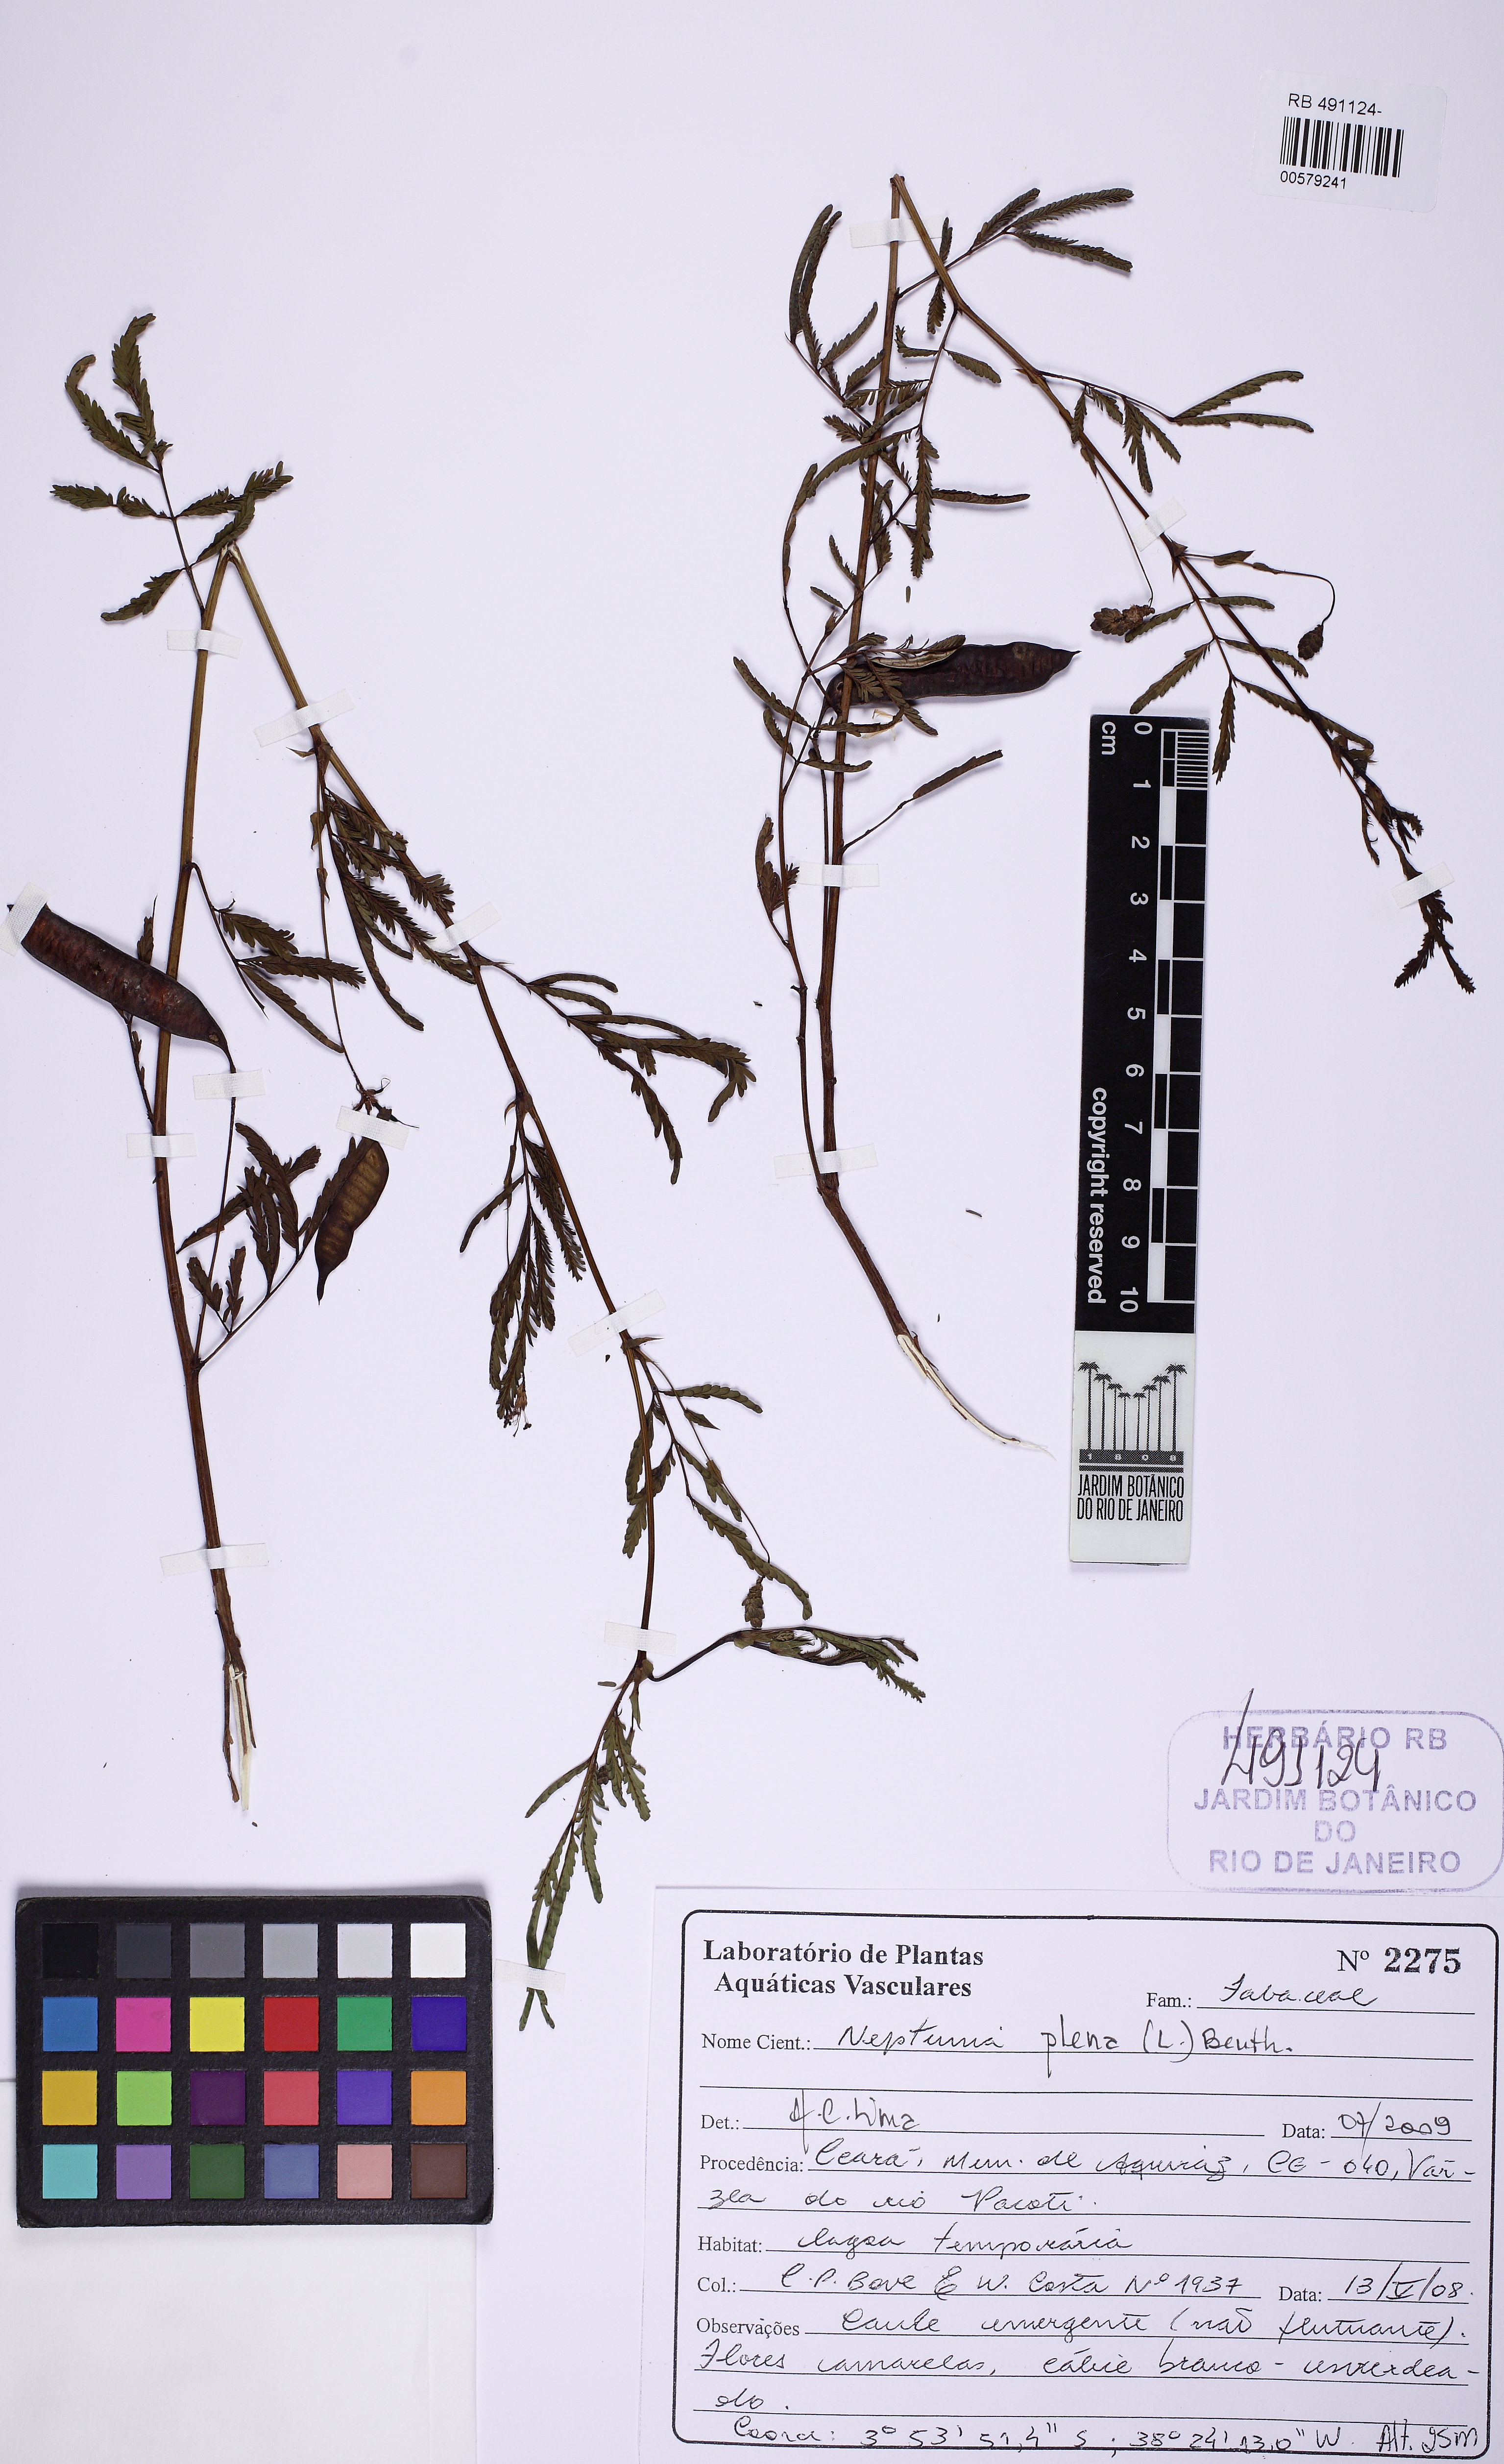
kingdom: Plantae
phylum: Tracheophyta
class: Magnoliopsida
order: Fabales
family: Fabaceae
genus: Neptunia
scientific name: Neptunia plena
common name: Dead and awake
